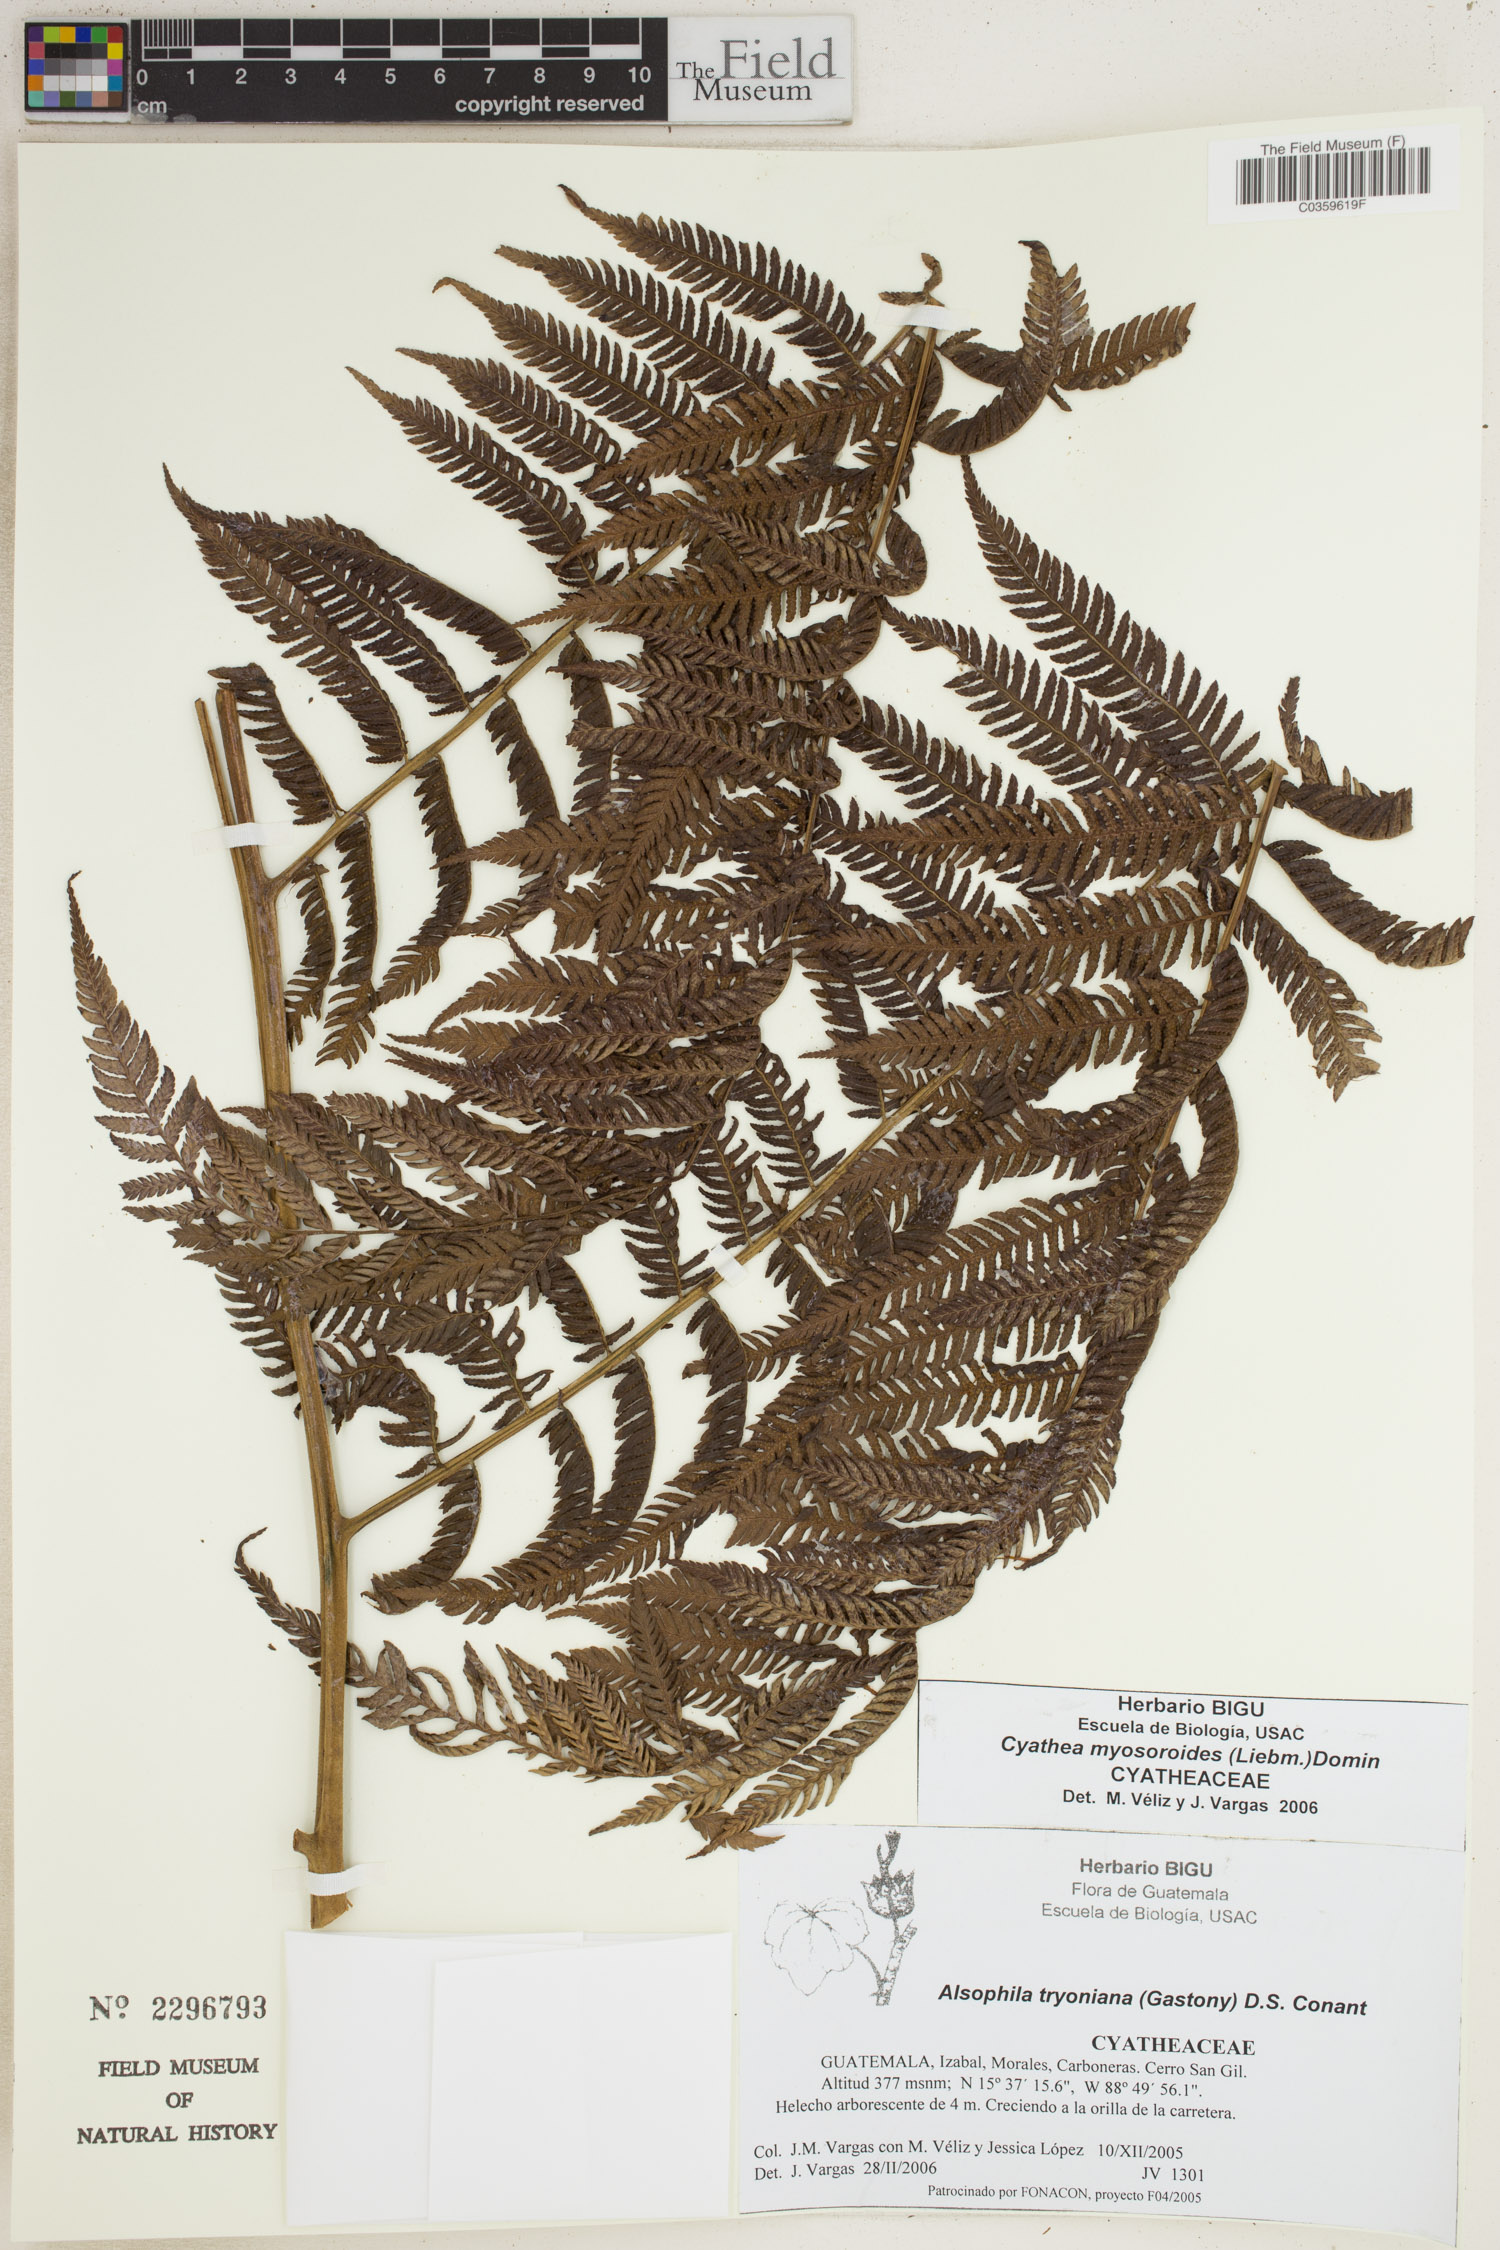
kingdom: Plantae
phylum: Tracheophyta
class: Polypodiopsida
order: Cyatheales
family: Cyatheaceae
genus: Sphaeropteris
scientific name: Sphaeropteris myosuroides
